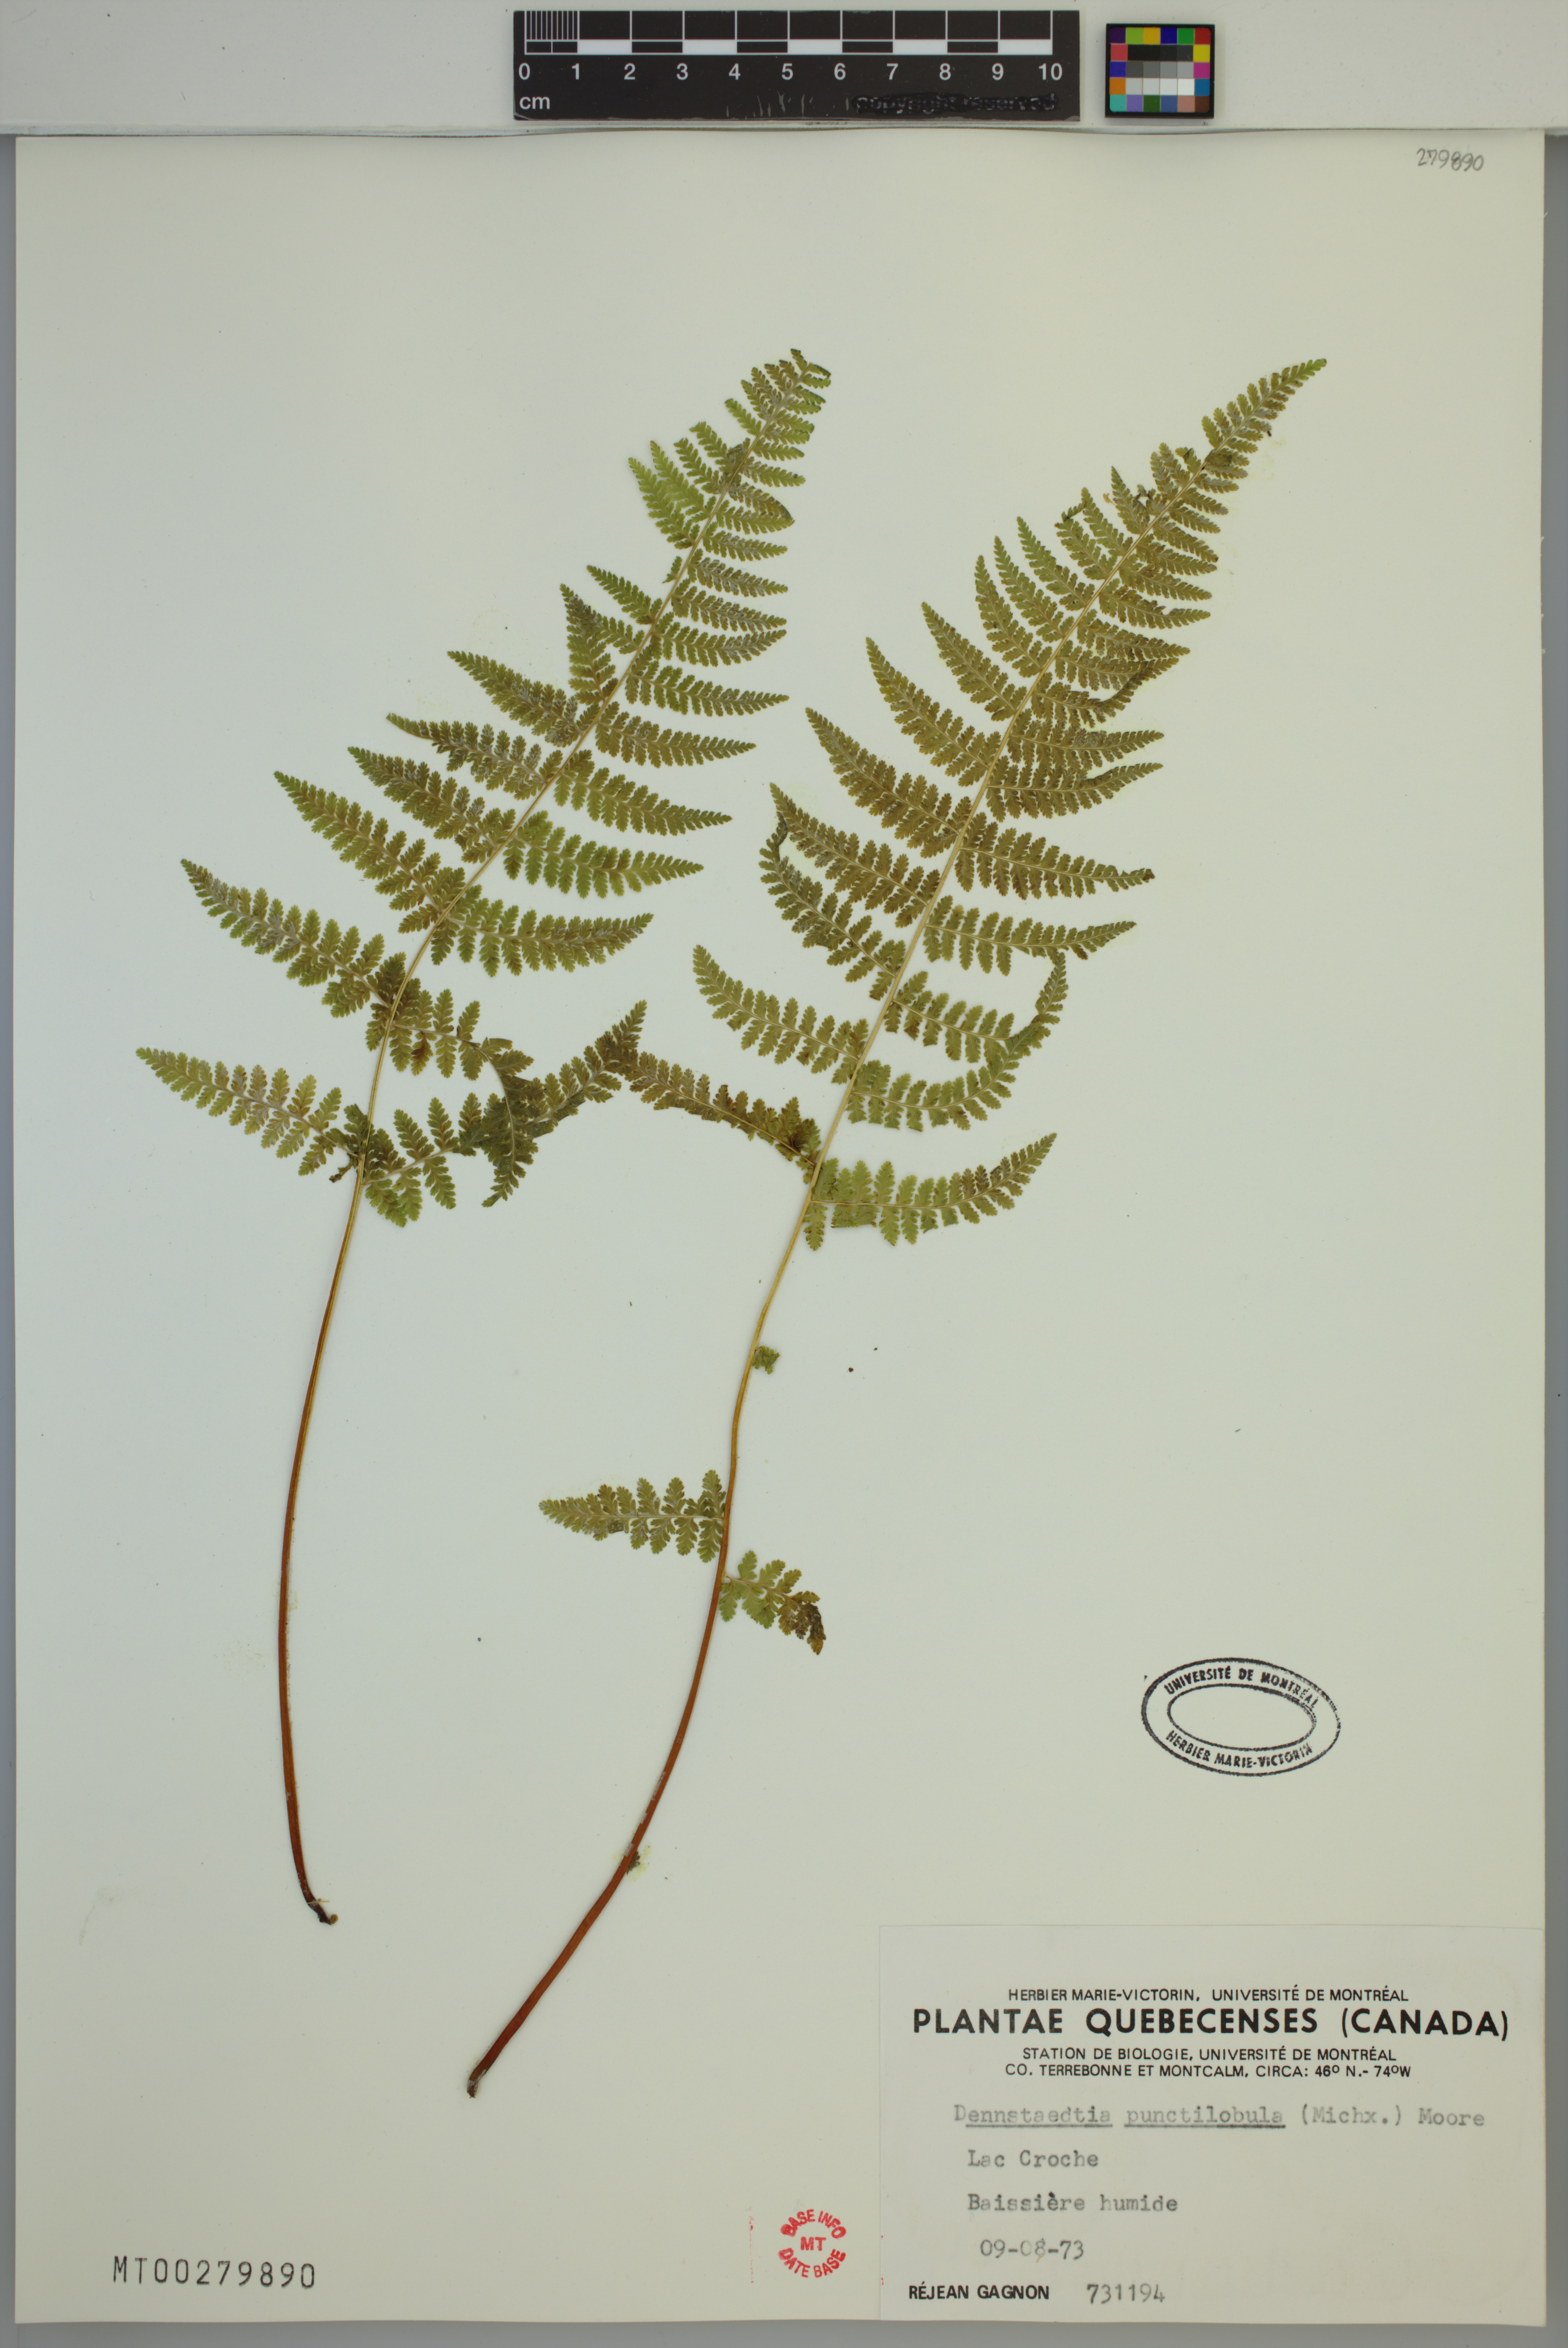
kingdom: Plantae
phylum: Tracheophyta
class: Polypodiopsida
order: Polypodiales
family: Dennstaedtiaceae
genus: Sitobolium
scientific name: Sitobolium punctilobum
